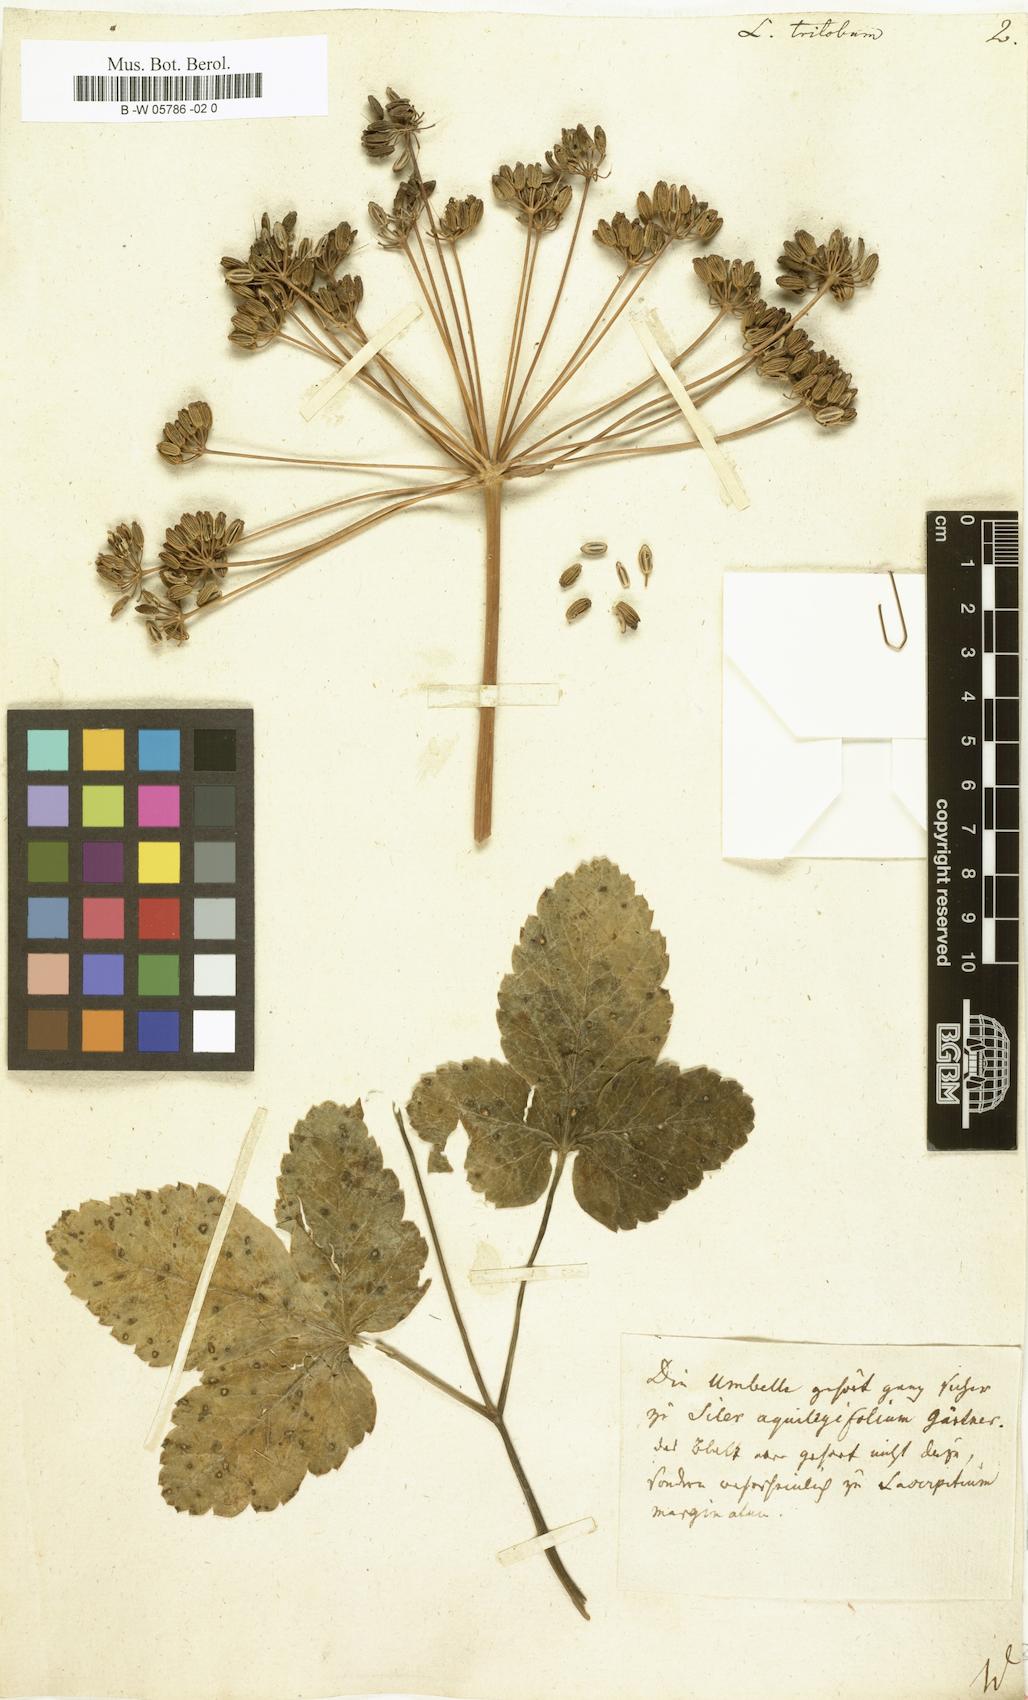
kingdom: Plantae
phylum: Tracheophyta
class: Magnoliopsida
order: Apiales
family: Apiaceae
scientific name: Apiaceae
